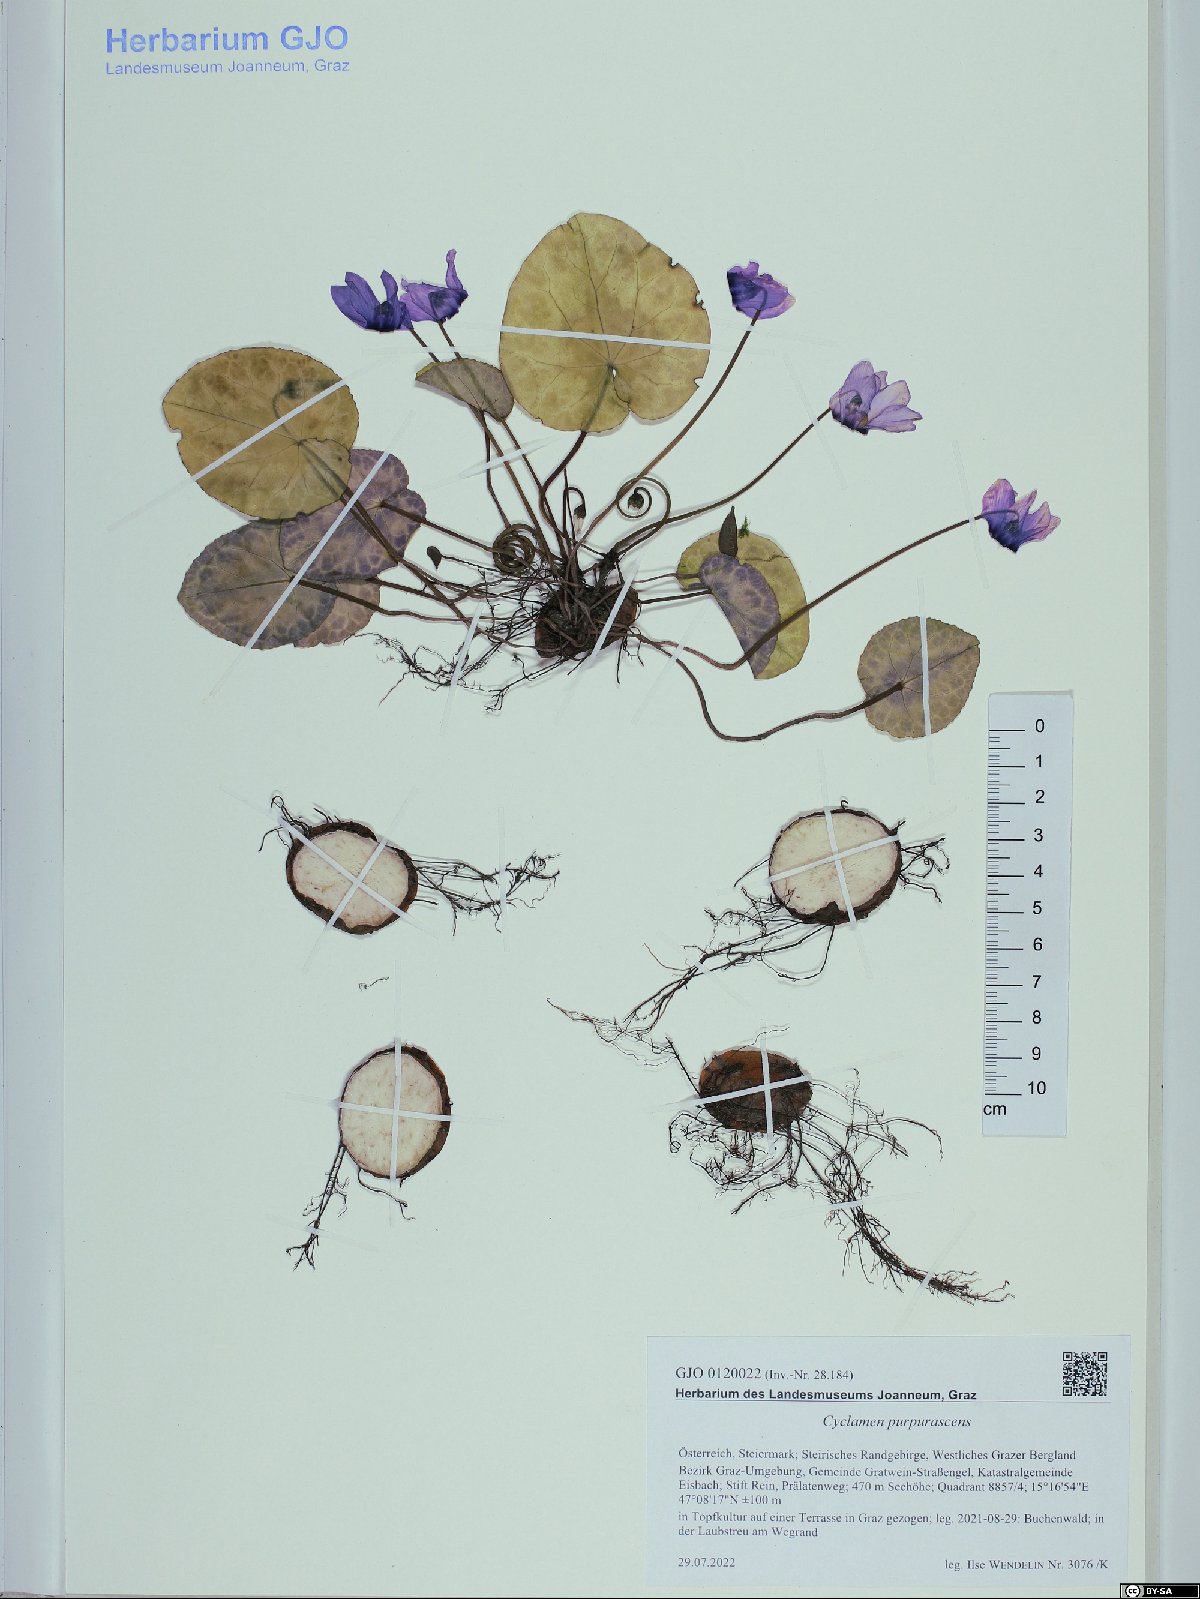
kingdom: Plantae
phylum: Tracheophyta
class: Magnoliopsida
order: Ericales
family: Primulaceae
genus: Cyclamen
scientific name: Cyclamen purpurascens
